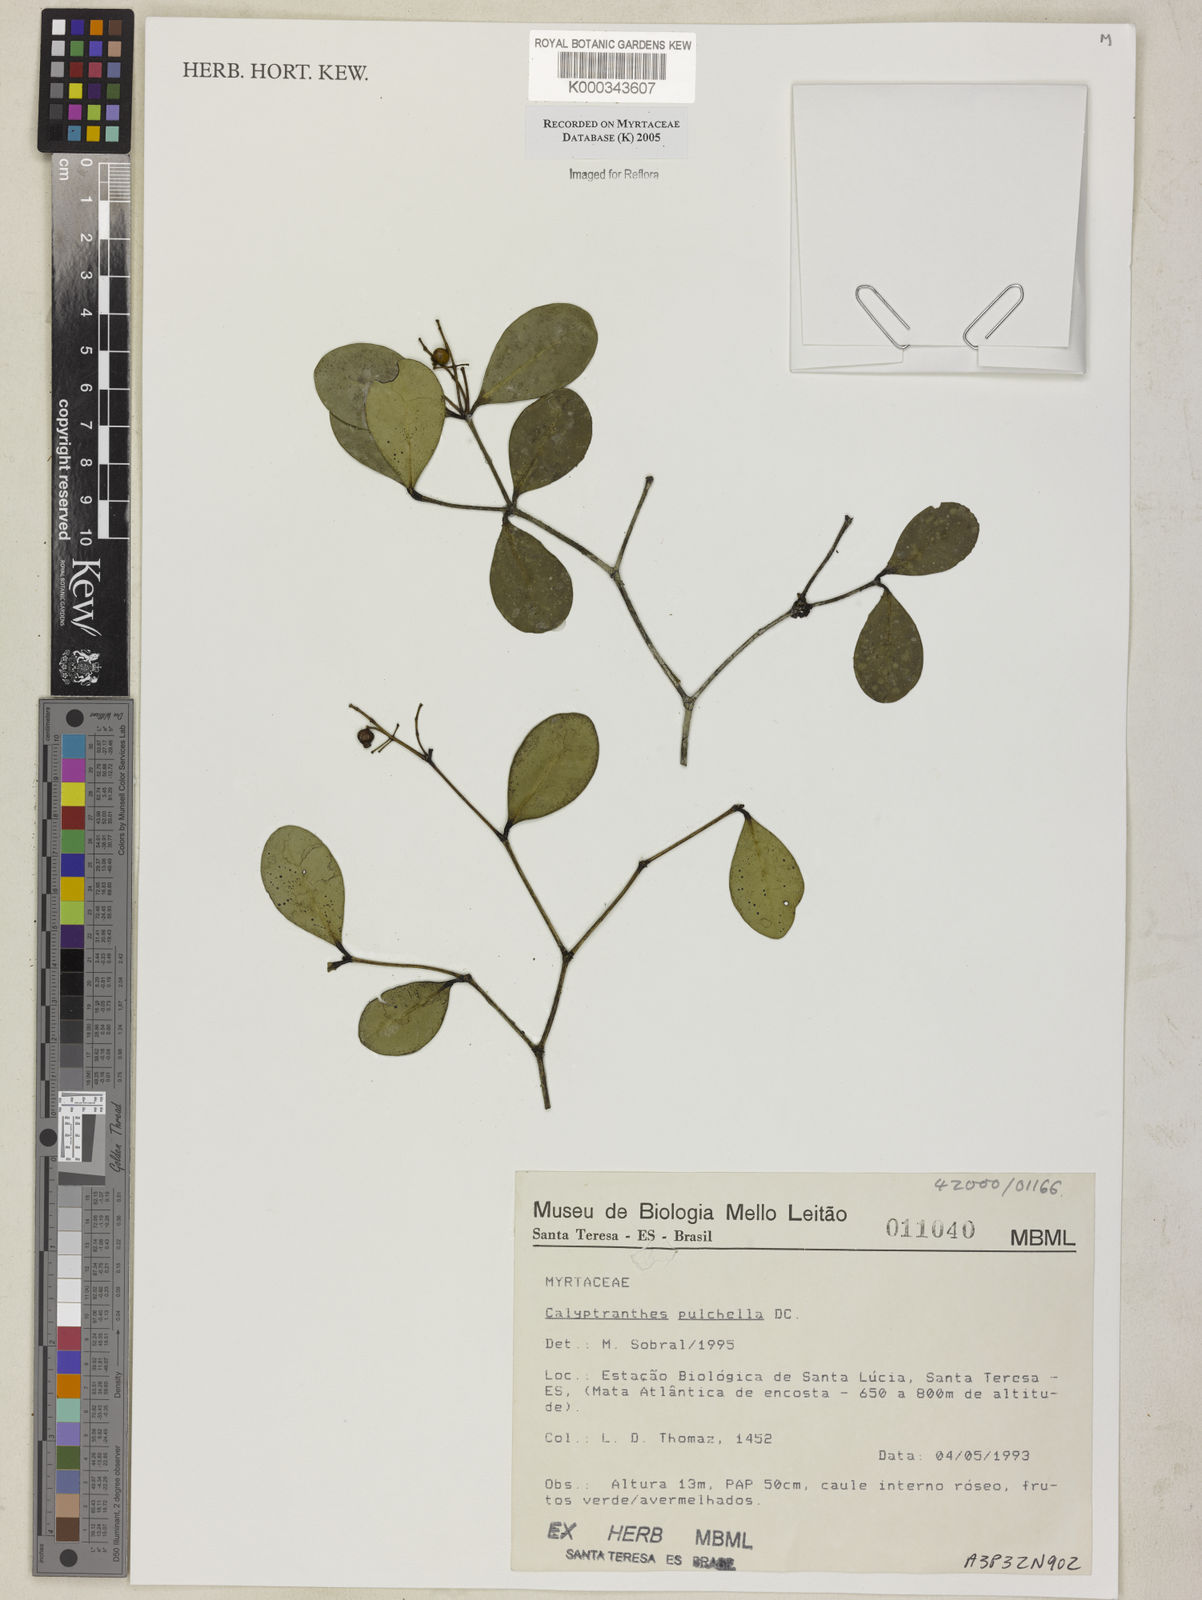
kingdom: Plantae
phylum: Tracheophyta
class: Magnoliopsida
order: Myrtales
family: Myrtaceae
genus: Myrcia
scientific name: Myrcia pulchella
